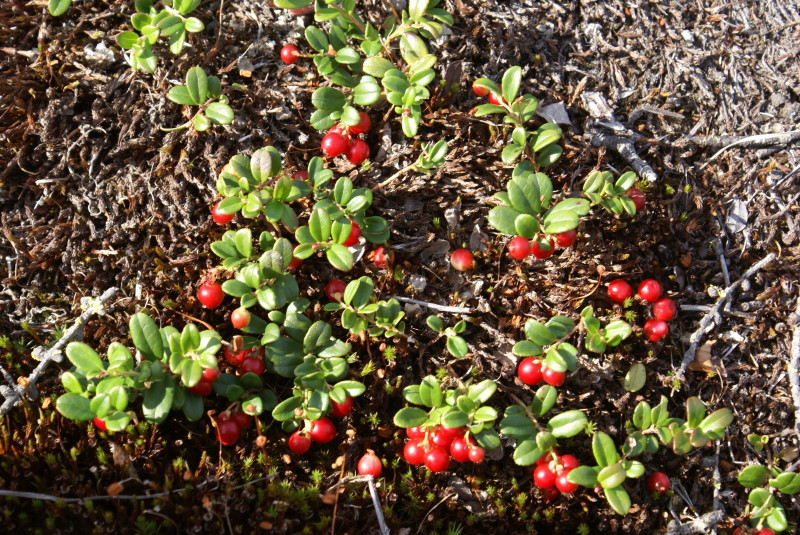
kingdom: Plantae
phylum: Tracheophyta
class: Magnoliopsida
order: Ericales
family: Ericaceae
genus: Vaccinium
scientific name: Vaccinium vitis-idaea
